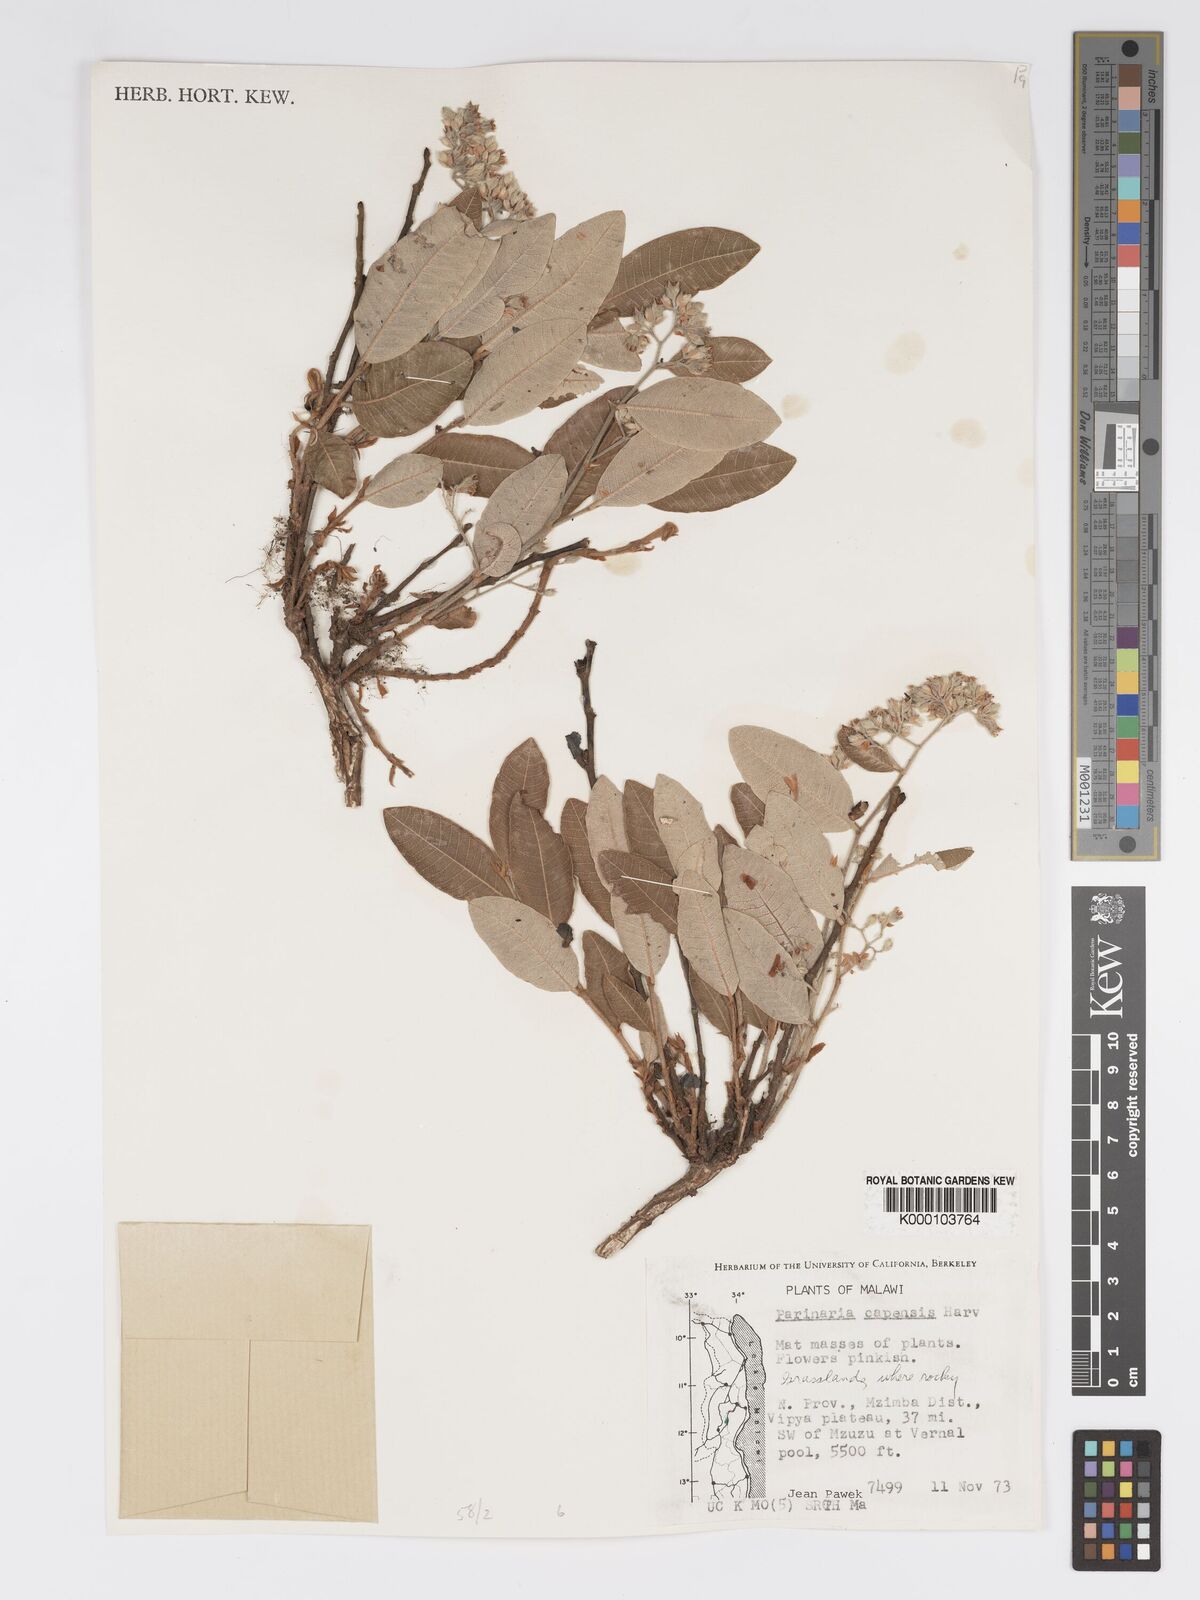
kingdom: Plantae
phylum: Tracheophyta
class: Magnoliopsida
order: Malpighiales
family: Chrysobalanaceae
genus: Parinari
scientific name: Parinari capensis
